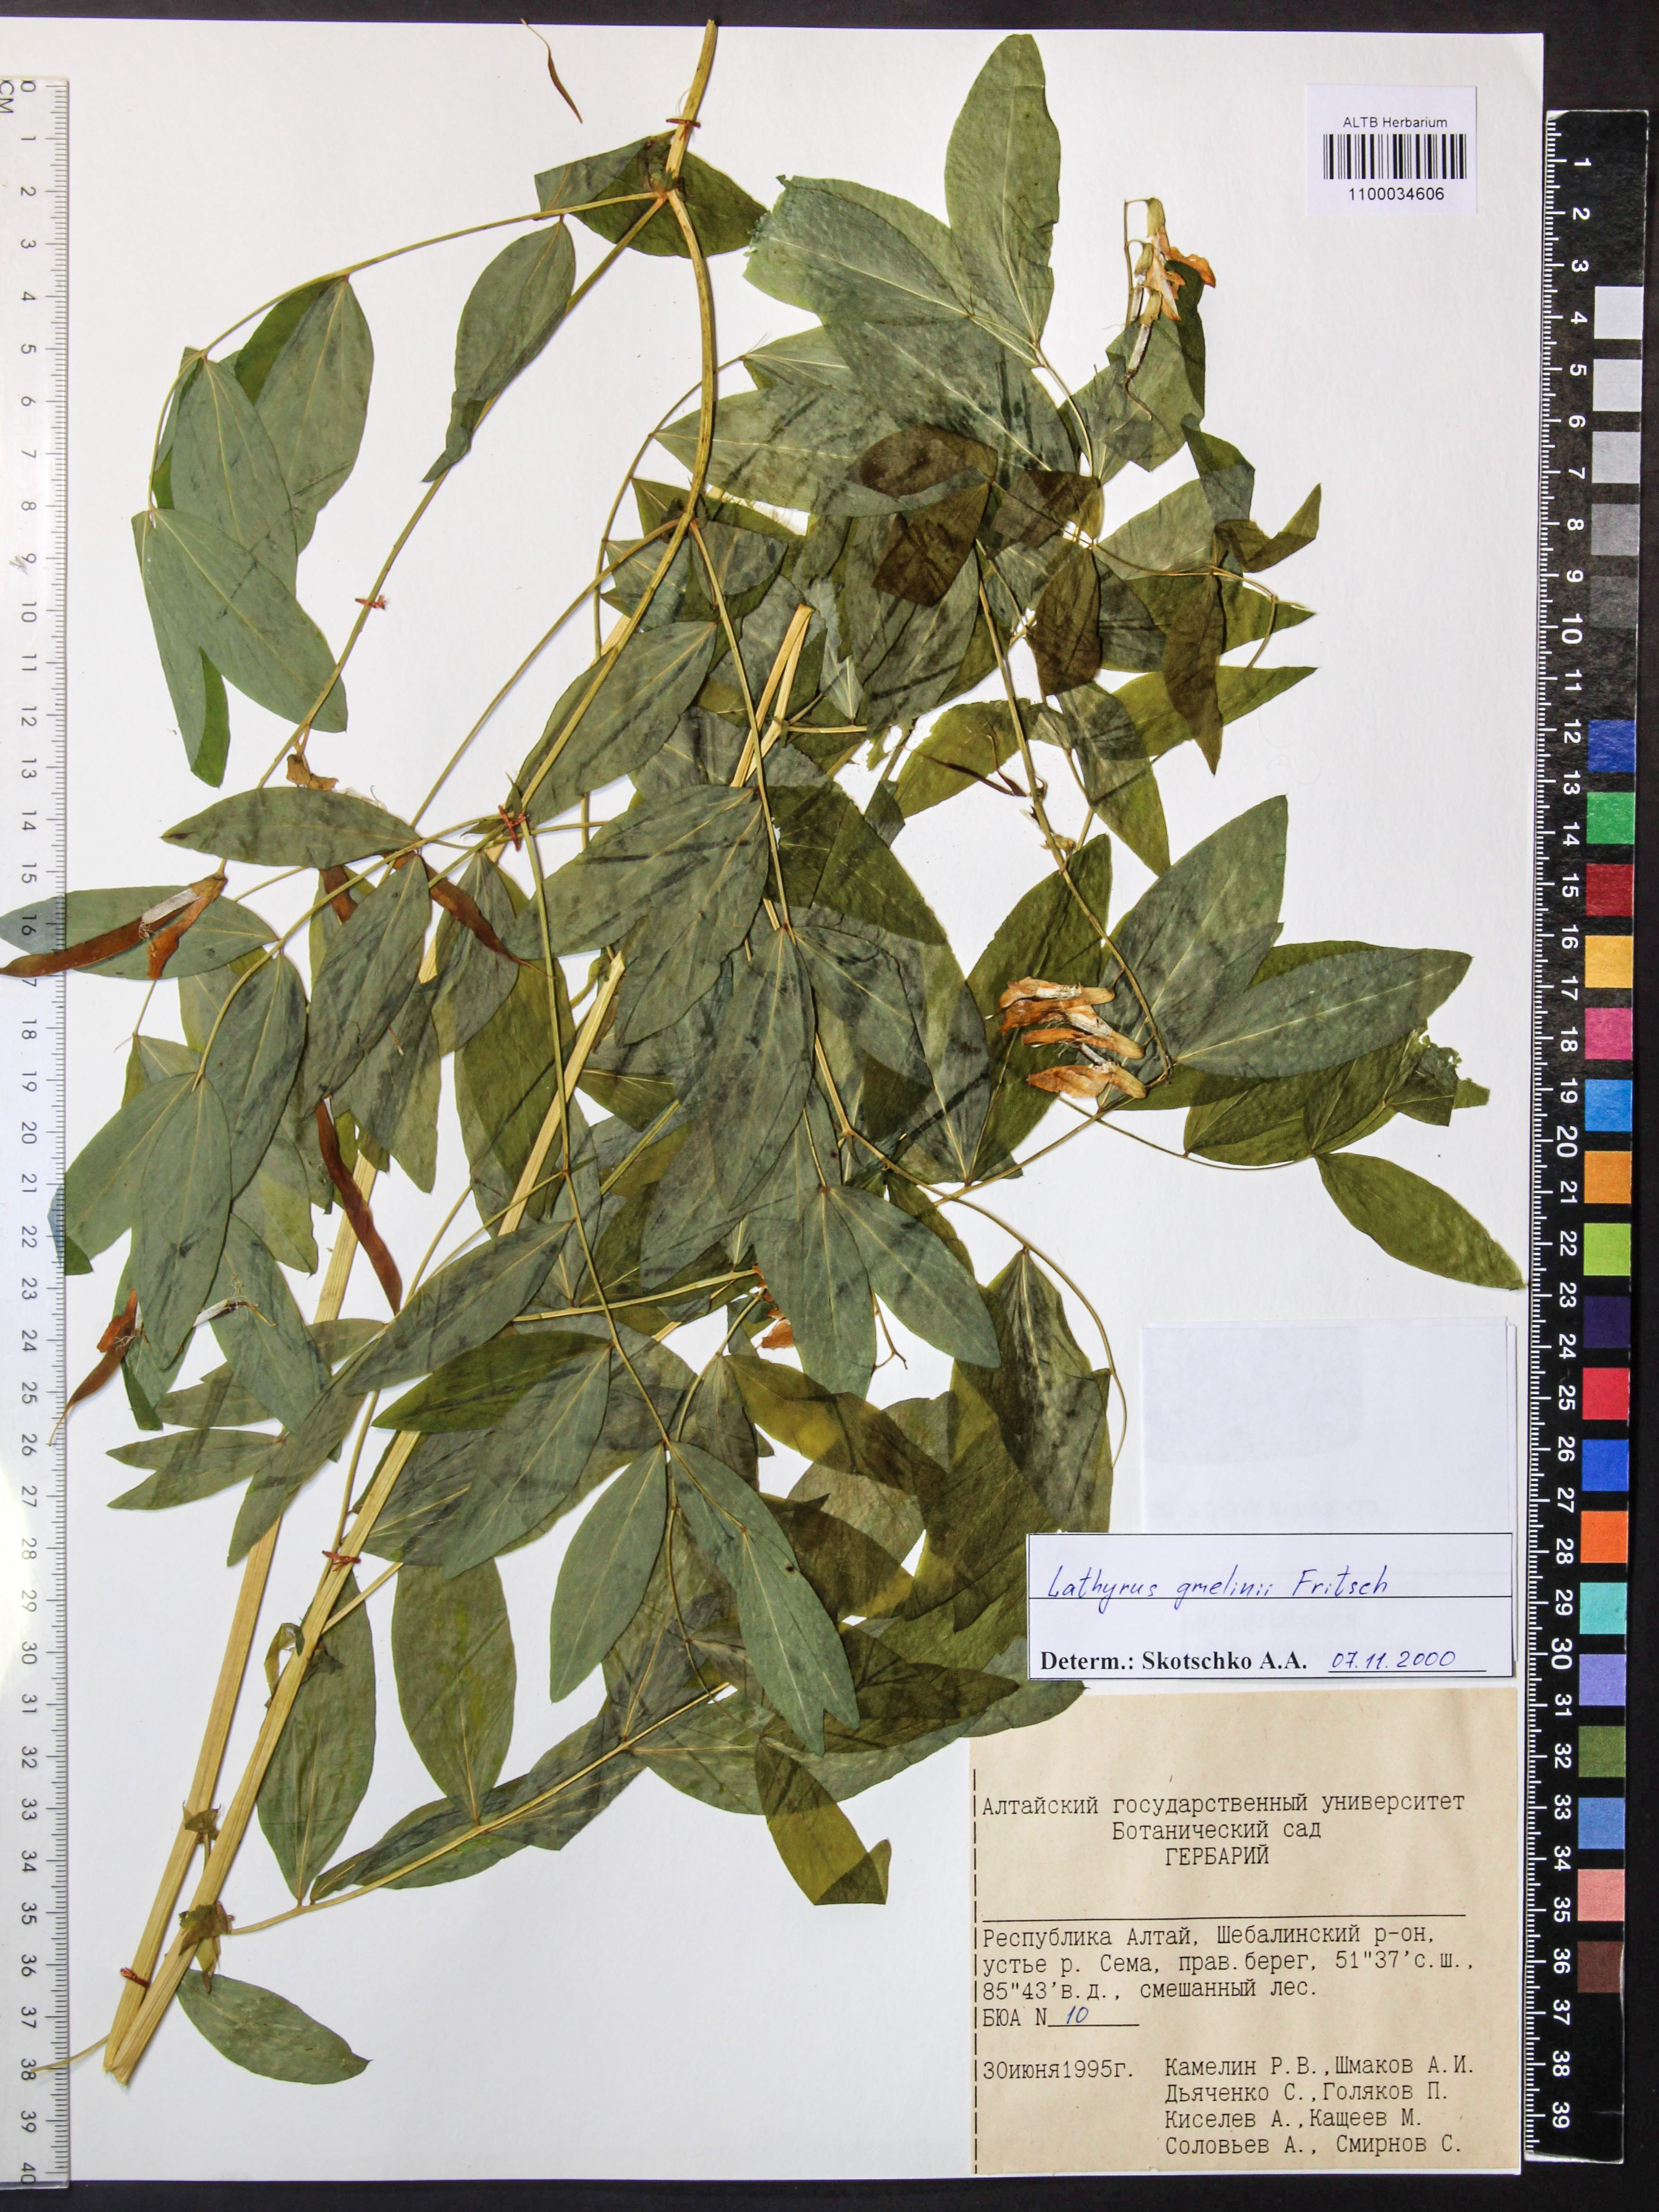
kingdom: Plantae
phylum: Tracheophyta
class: Magnoliopsida
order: Fabales
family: Fabaceae
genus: Lathyrus
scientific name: Lathyrus gmelinii
